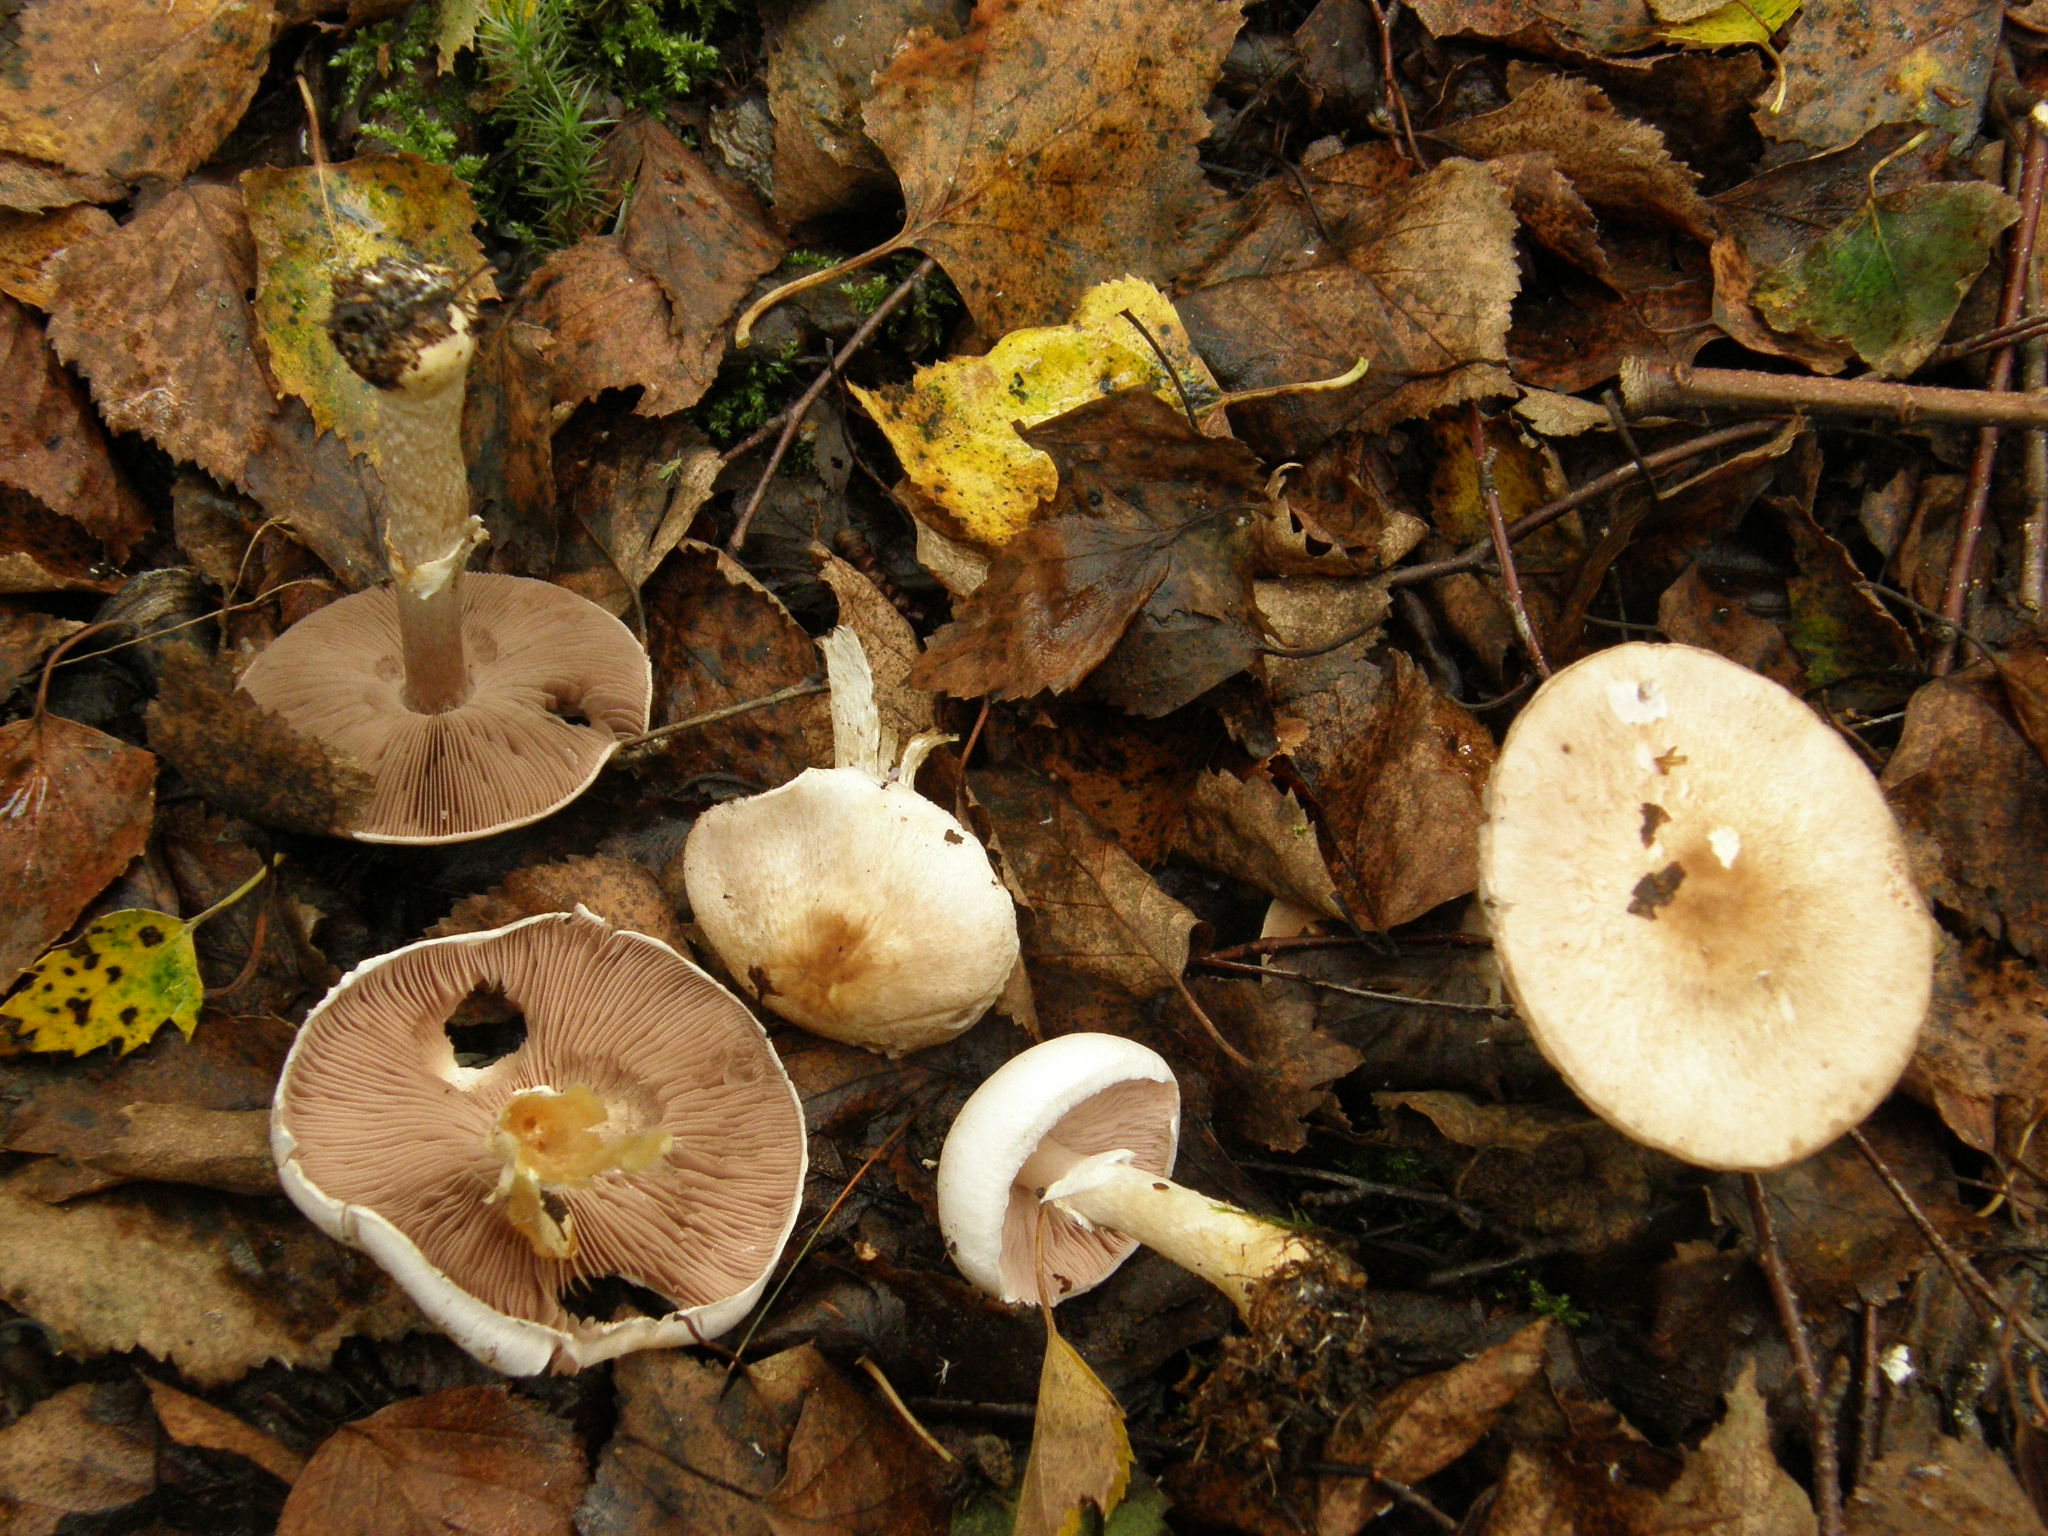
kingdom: Fungi
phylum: Basidiomycota
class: Agaricomycetes
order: Agaricales
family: Agaricaceae
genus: Agaricus
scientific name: Agaricus dulcidulus
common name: Rosy wood mushroom
